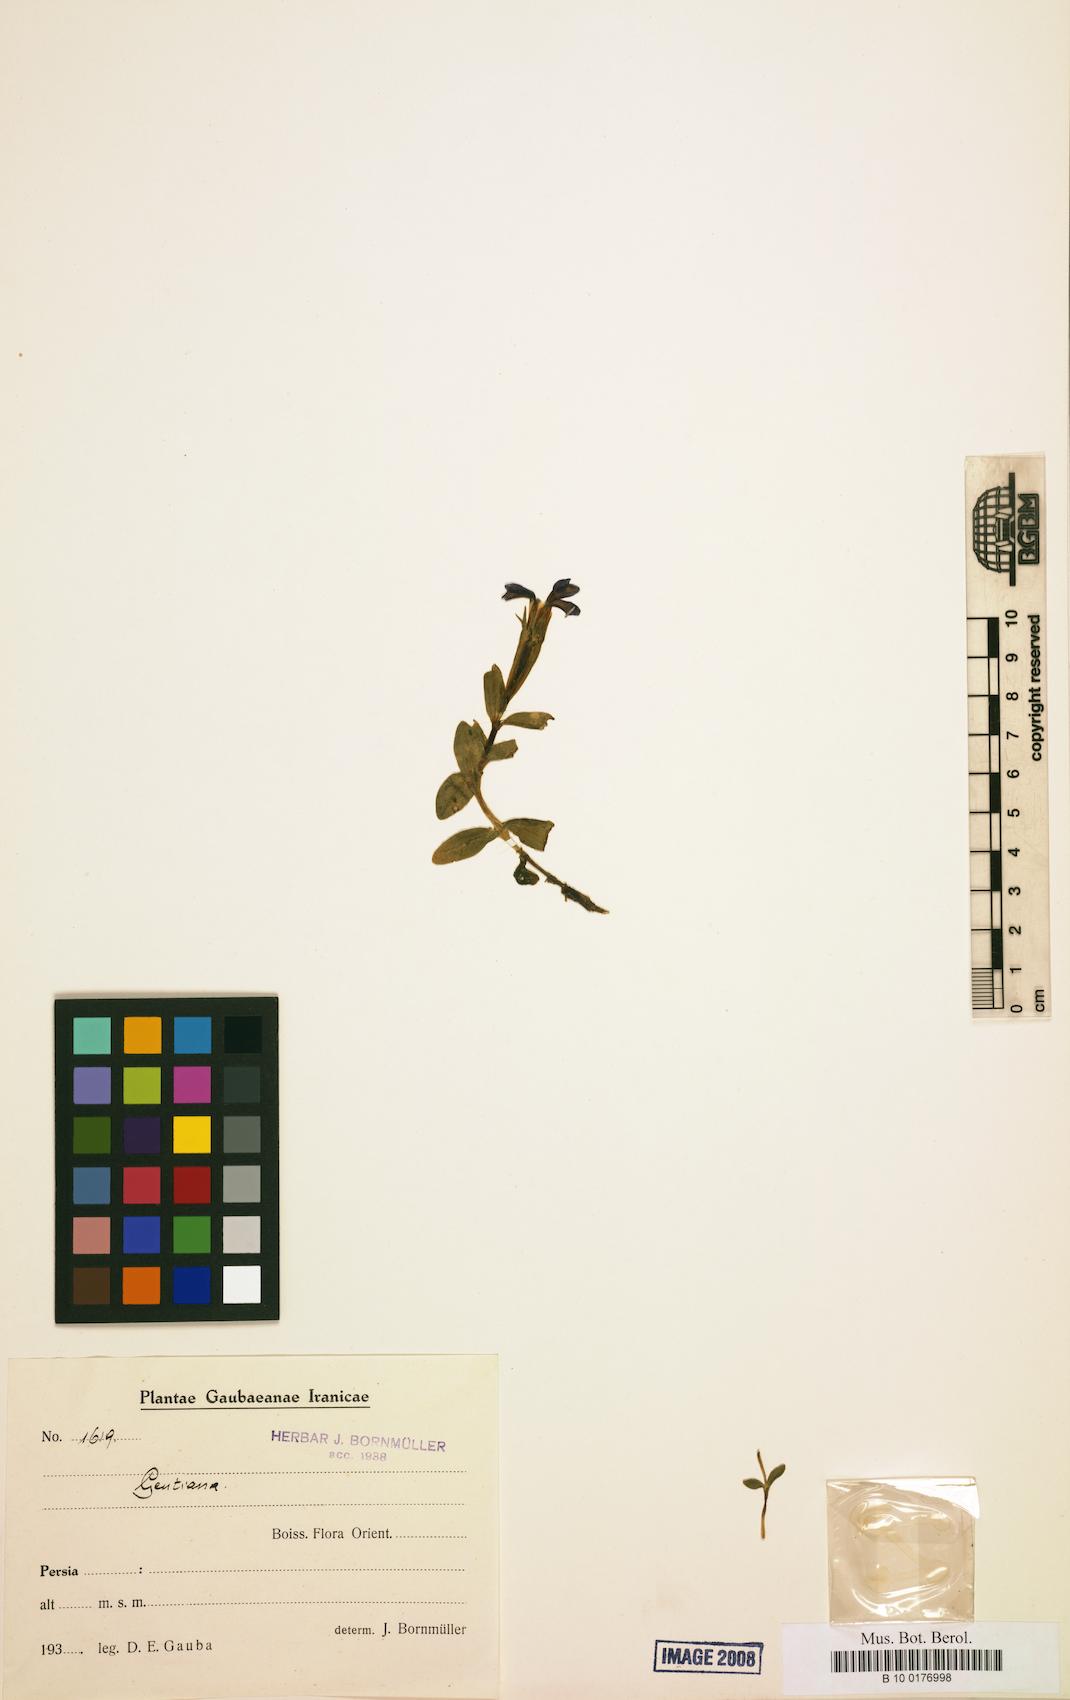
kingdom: Plantae
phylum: Tracheophyta
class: Magnoliopsida
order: Gentianales
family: Gentianaceae
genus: Gentiana
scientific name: Gentiana
